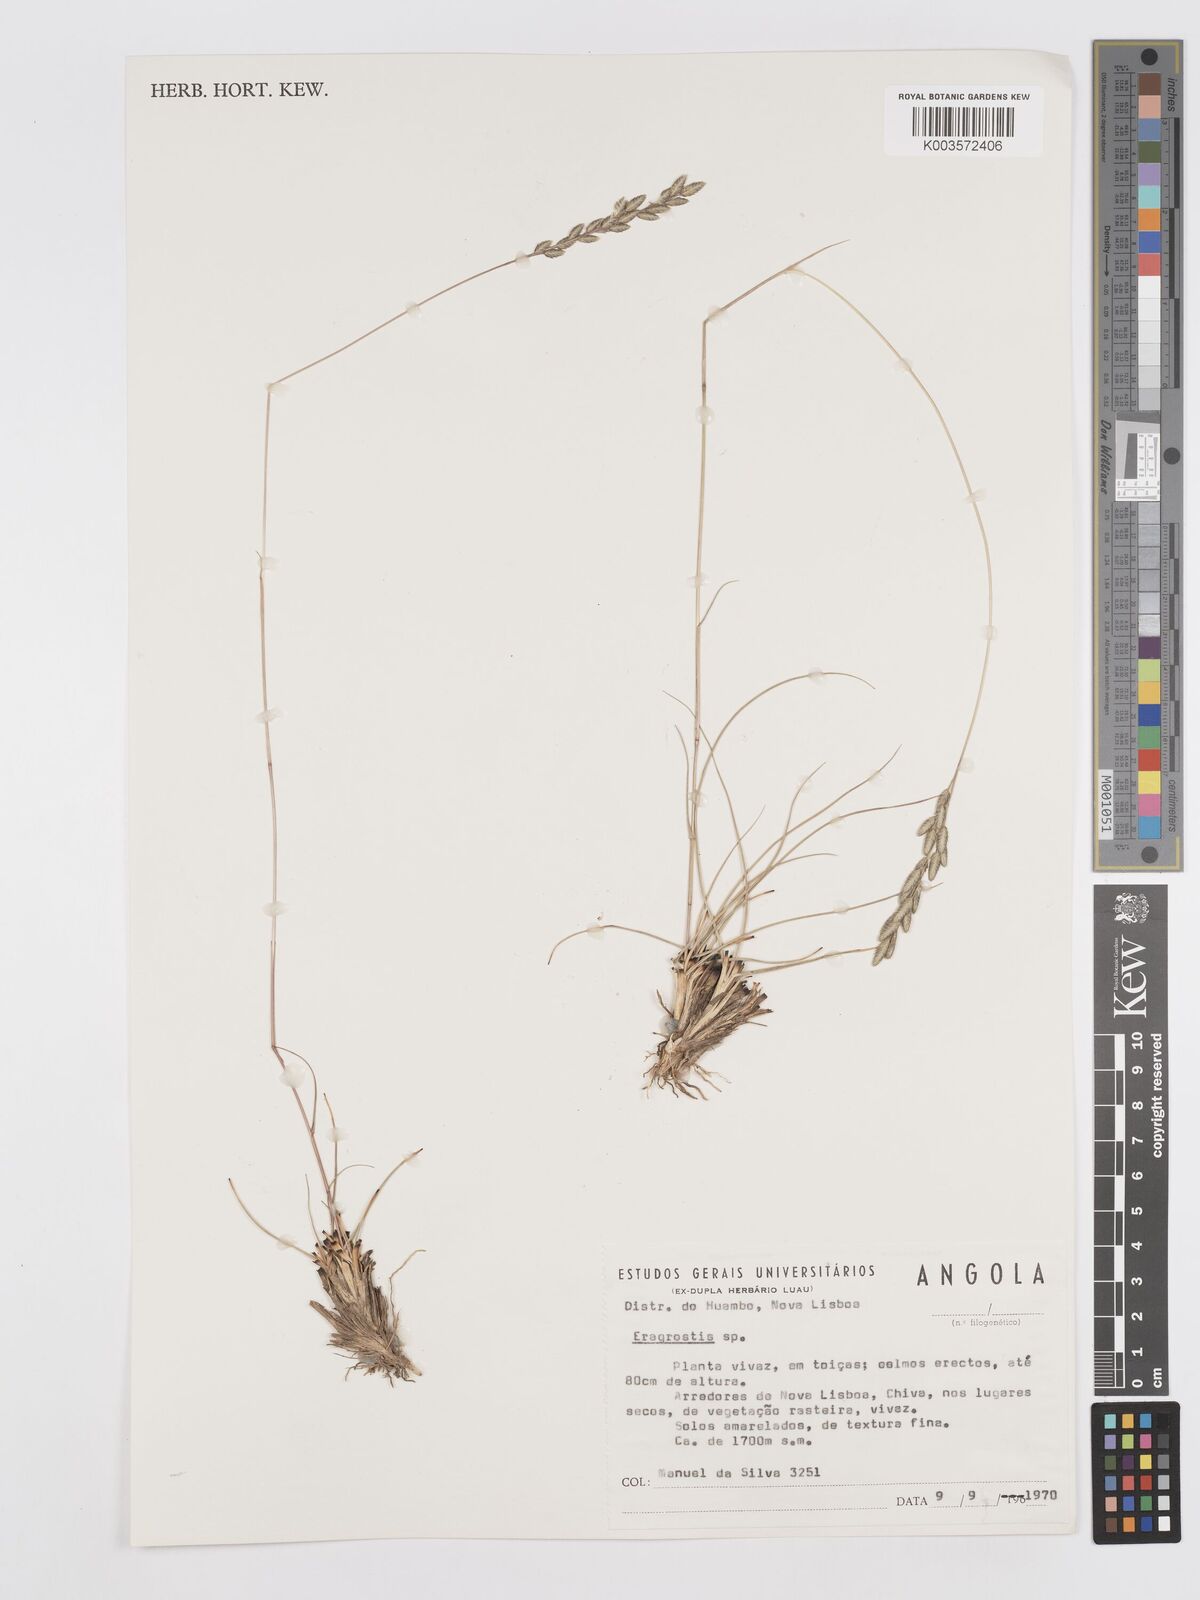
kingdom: Plantae
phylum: Tracheophyta
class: Liliopsida
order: Poales
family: Poaceae
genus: Eragrostis
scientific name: Eragrostis
